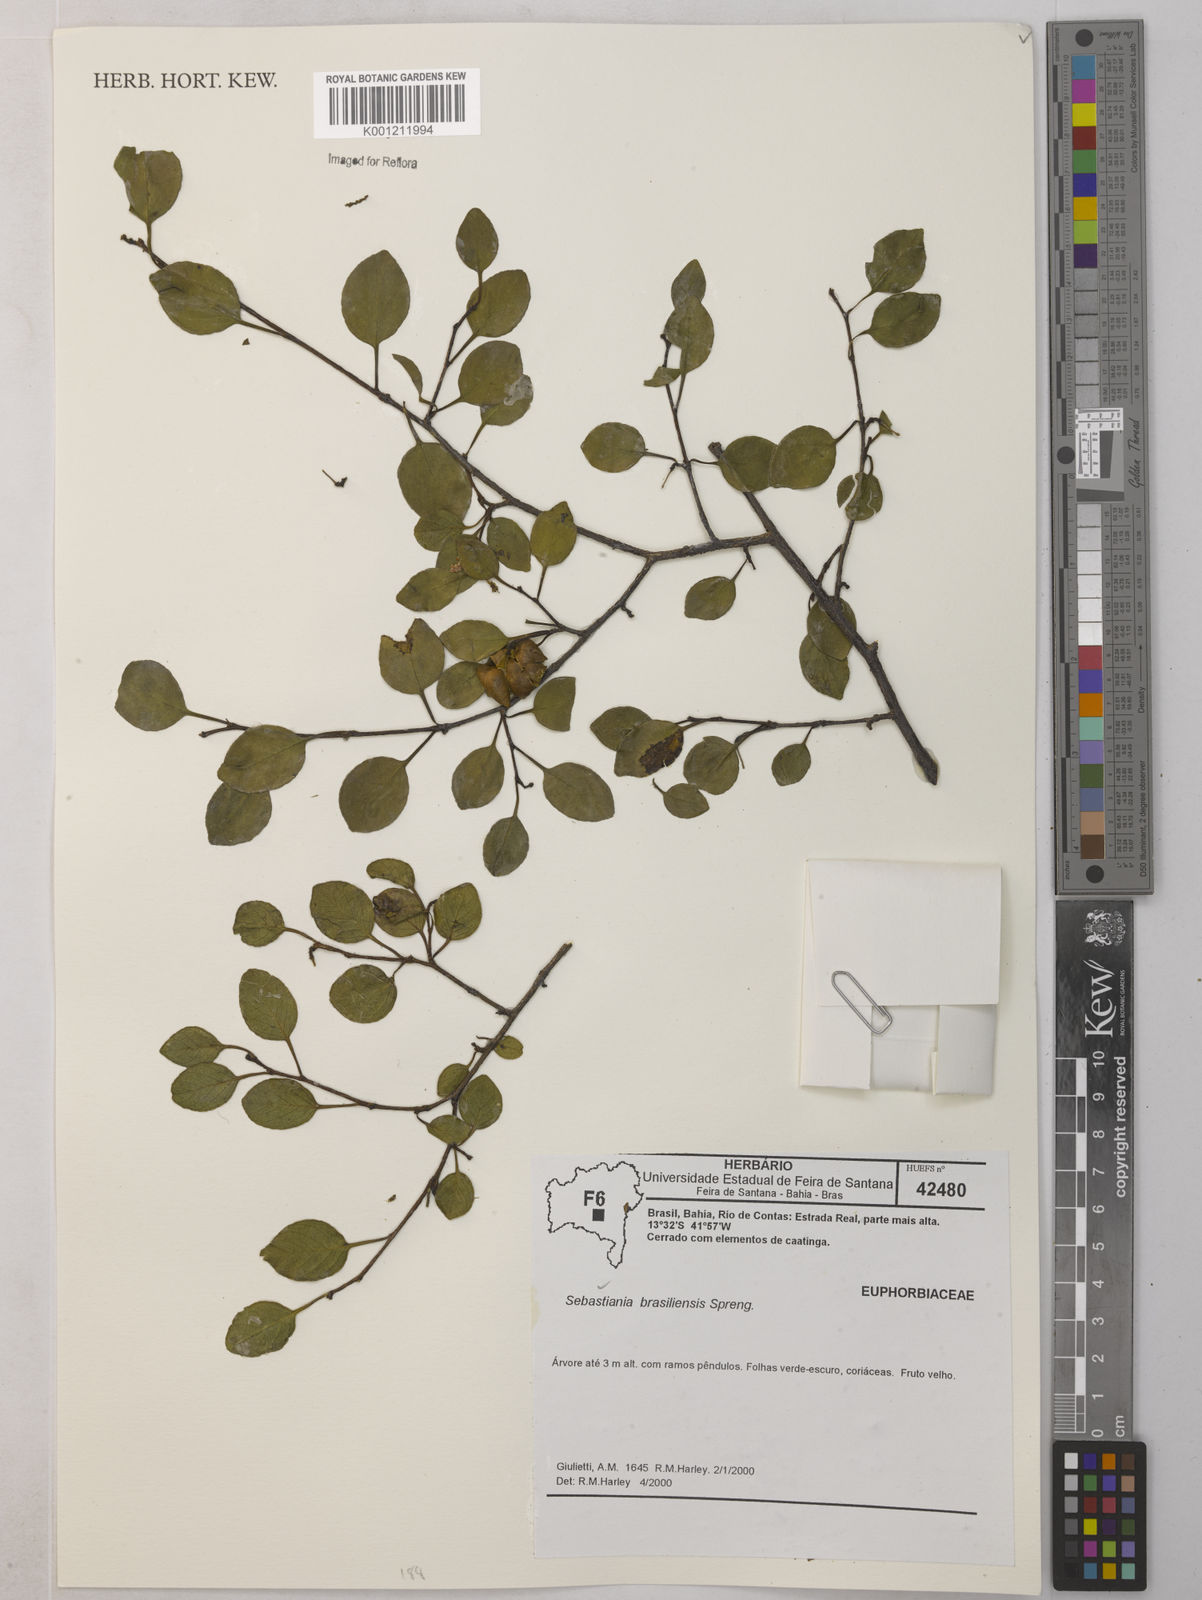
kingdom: Plantae
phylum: Tracheophyta
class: Magnoliopsida
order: Malpighiales
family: Euphorbiaceae
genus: Sebastiania
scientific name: Sebastiania brasiliensis
